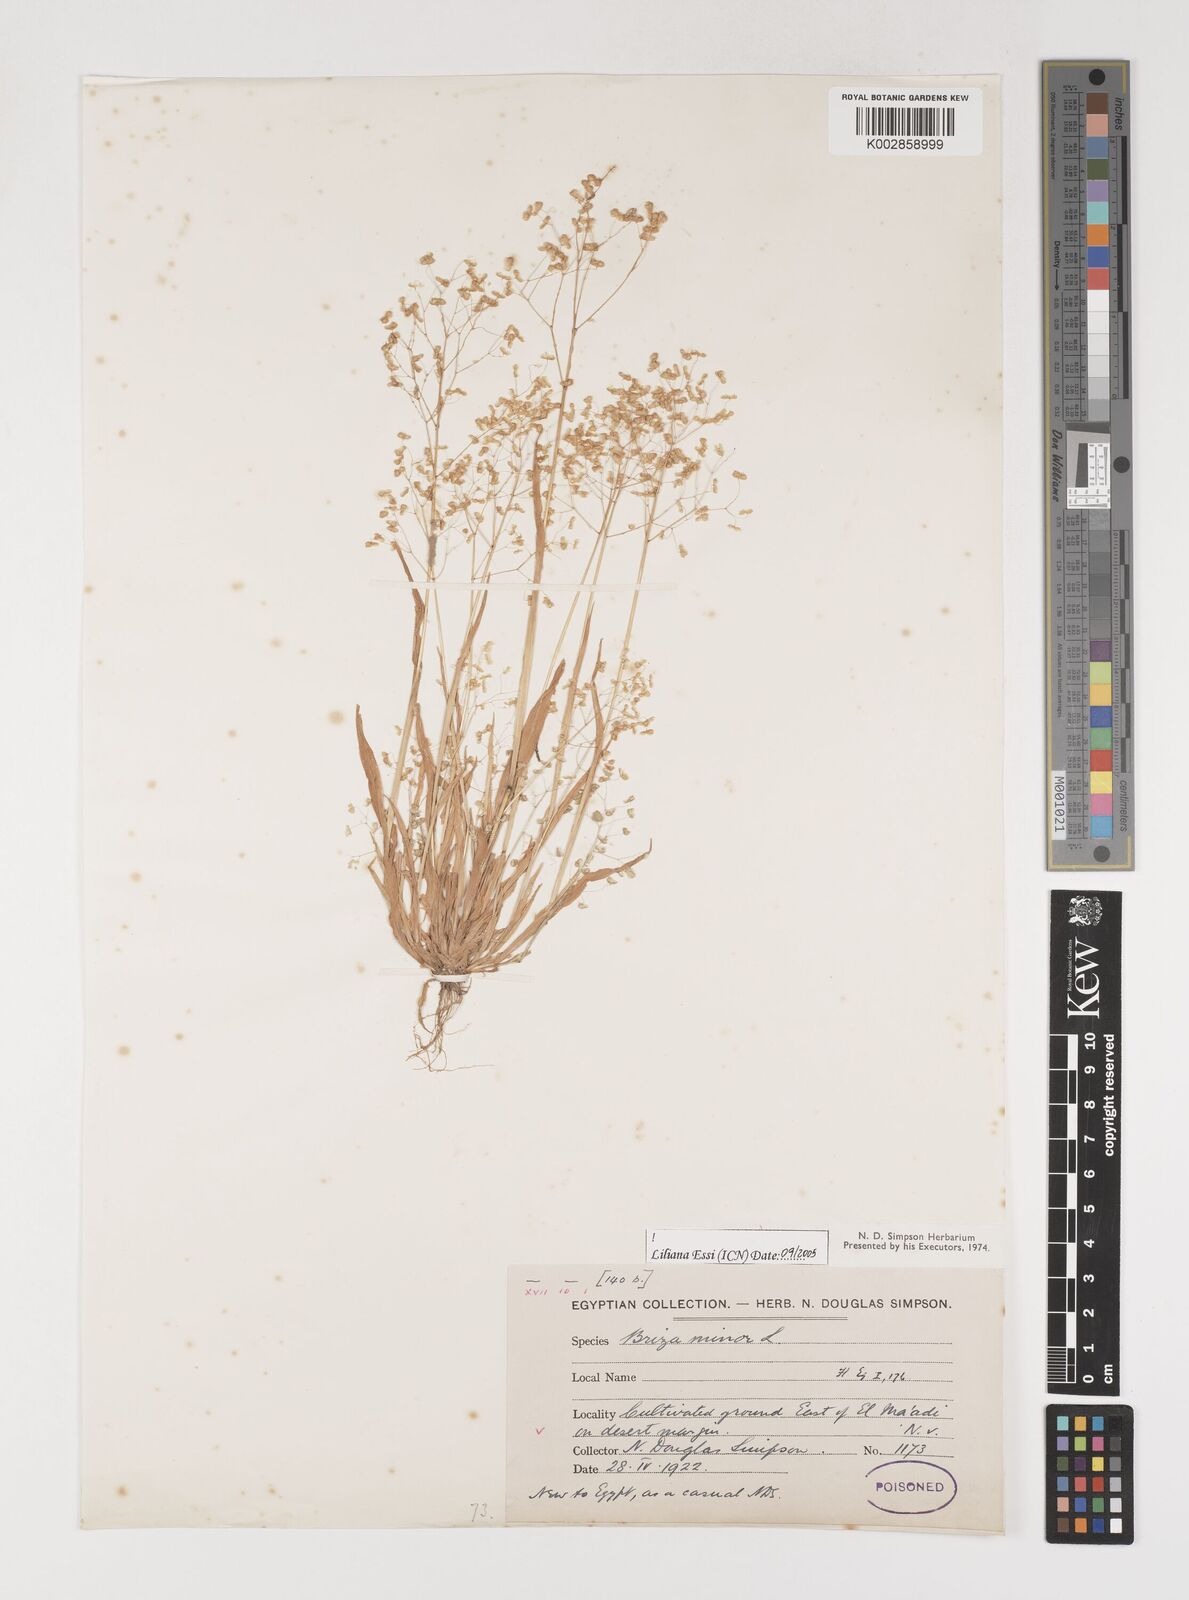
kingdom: Plantae
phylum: Tracheophyta
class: Liliopsida
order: Poales
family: Poaceae
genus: Briza
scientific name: Briza minor
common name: Lesser quaking-grass
